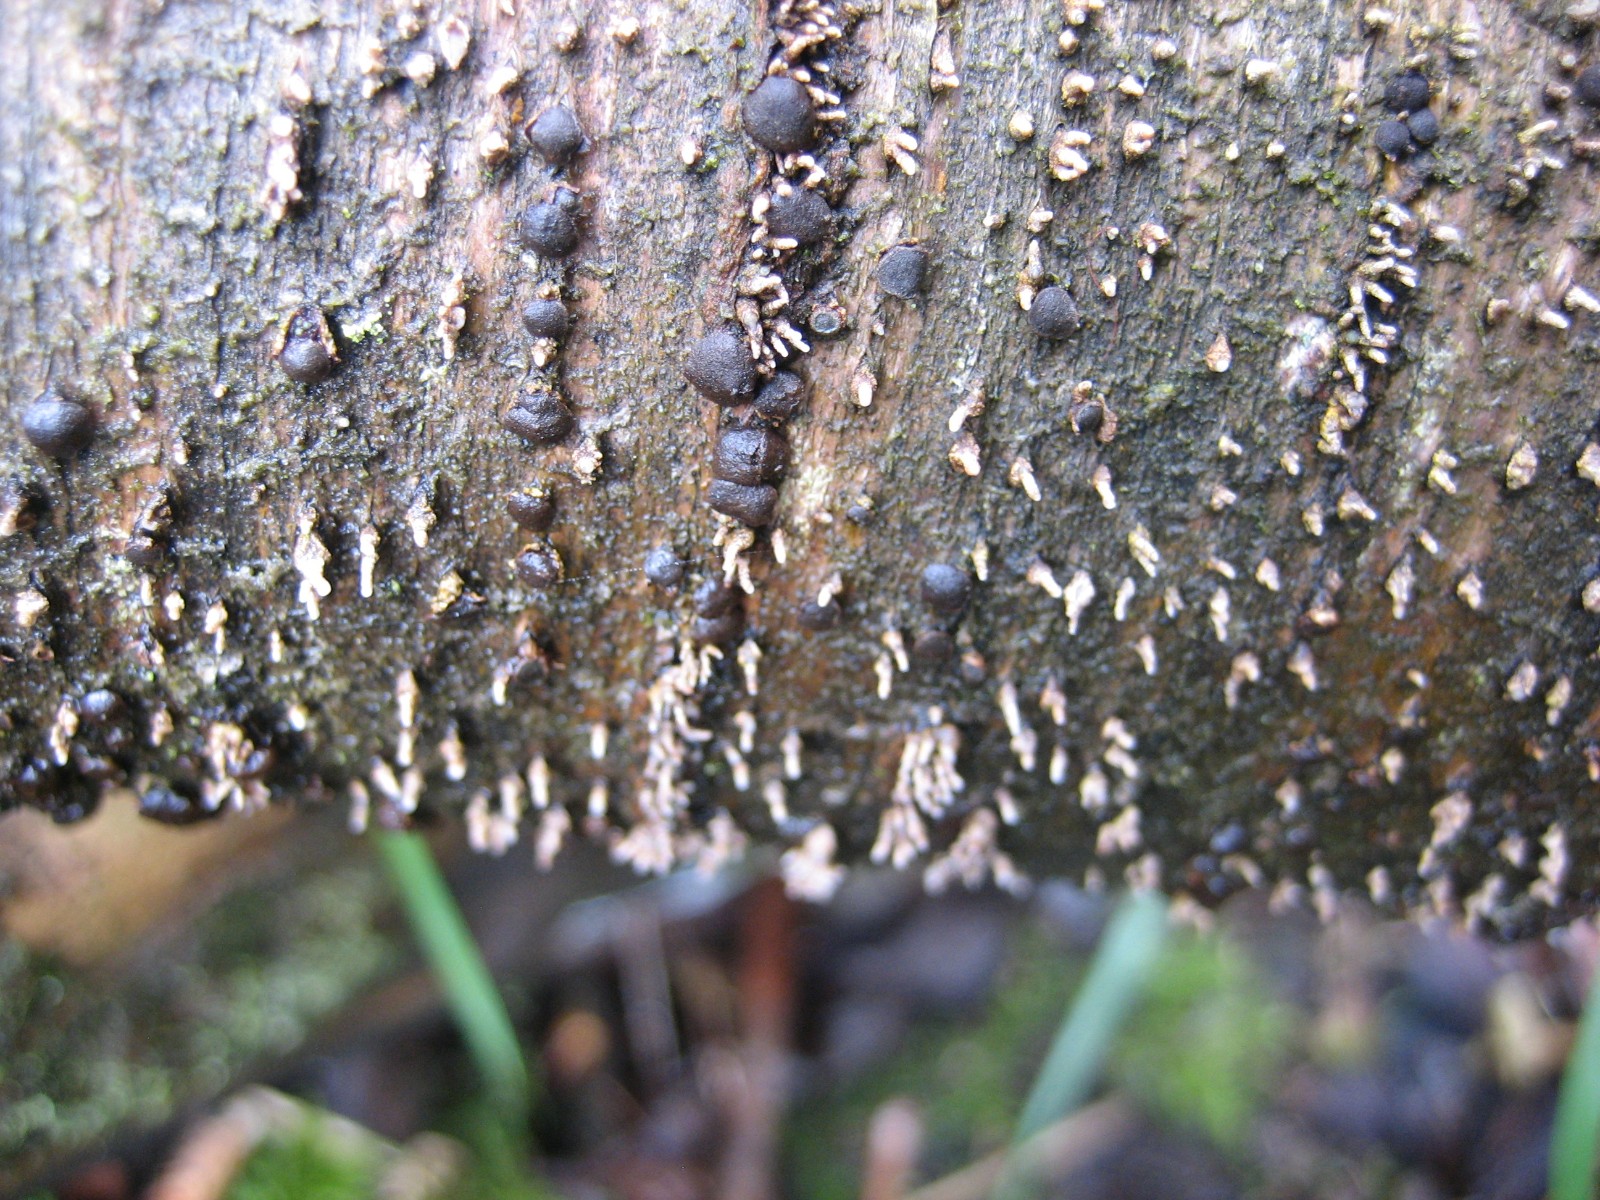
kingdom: Fungi
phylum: Ascomycota
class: Leotiomycetes
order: Helotiales
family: Dermateaceae
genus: Dermea
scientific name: Dermea cerasi
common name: kirsebær-klyngeskive
